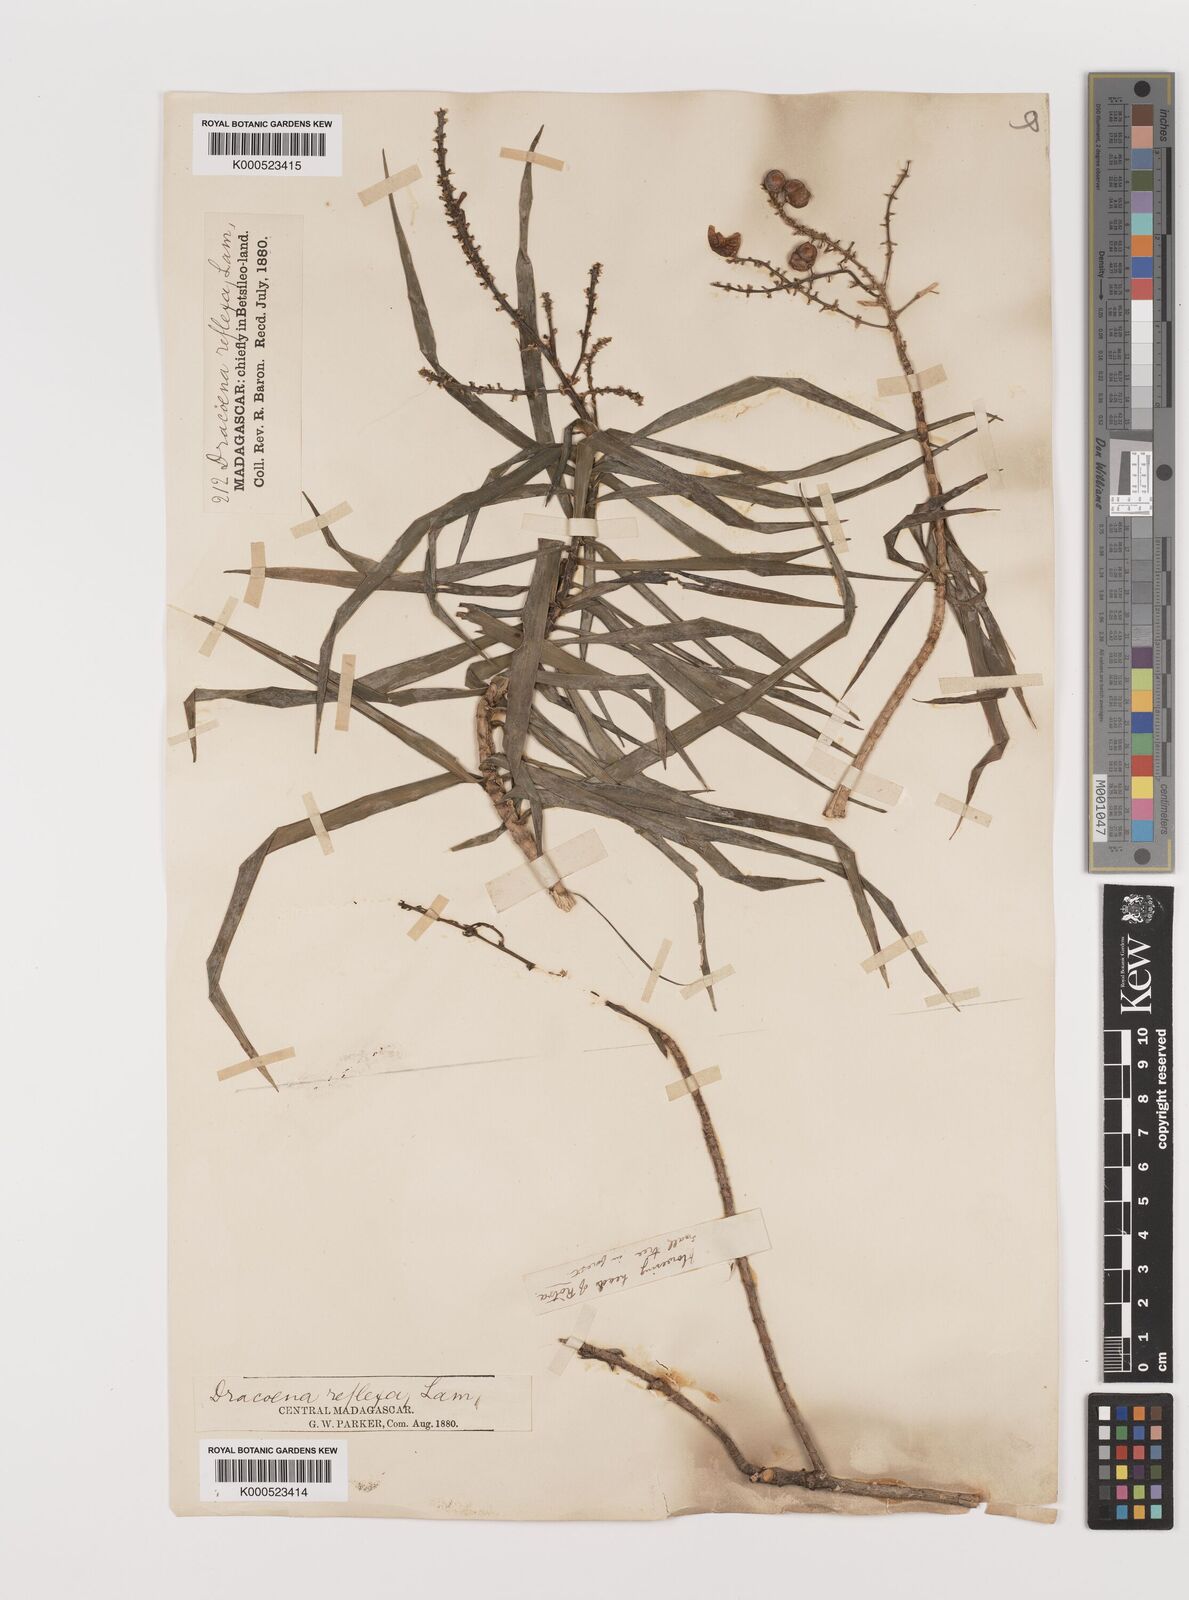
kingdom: Plantae
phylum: Tracheophyta
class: Liliopsida
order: Asparagales
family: Asparagaceae
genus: Dracaena
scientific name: Dracaena reflexa
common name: Song-of-india
